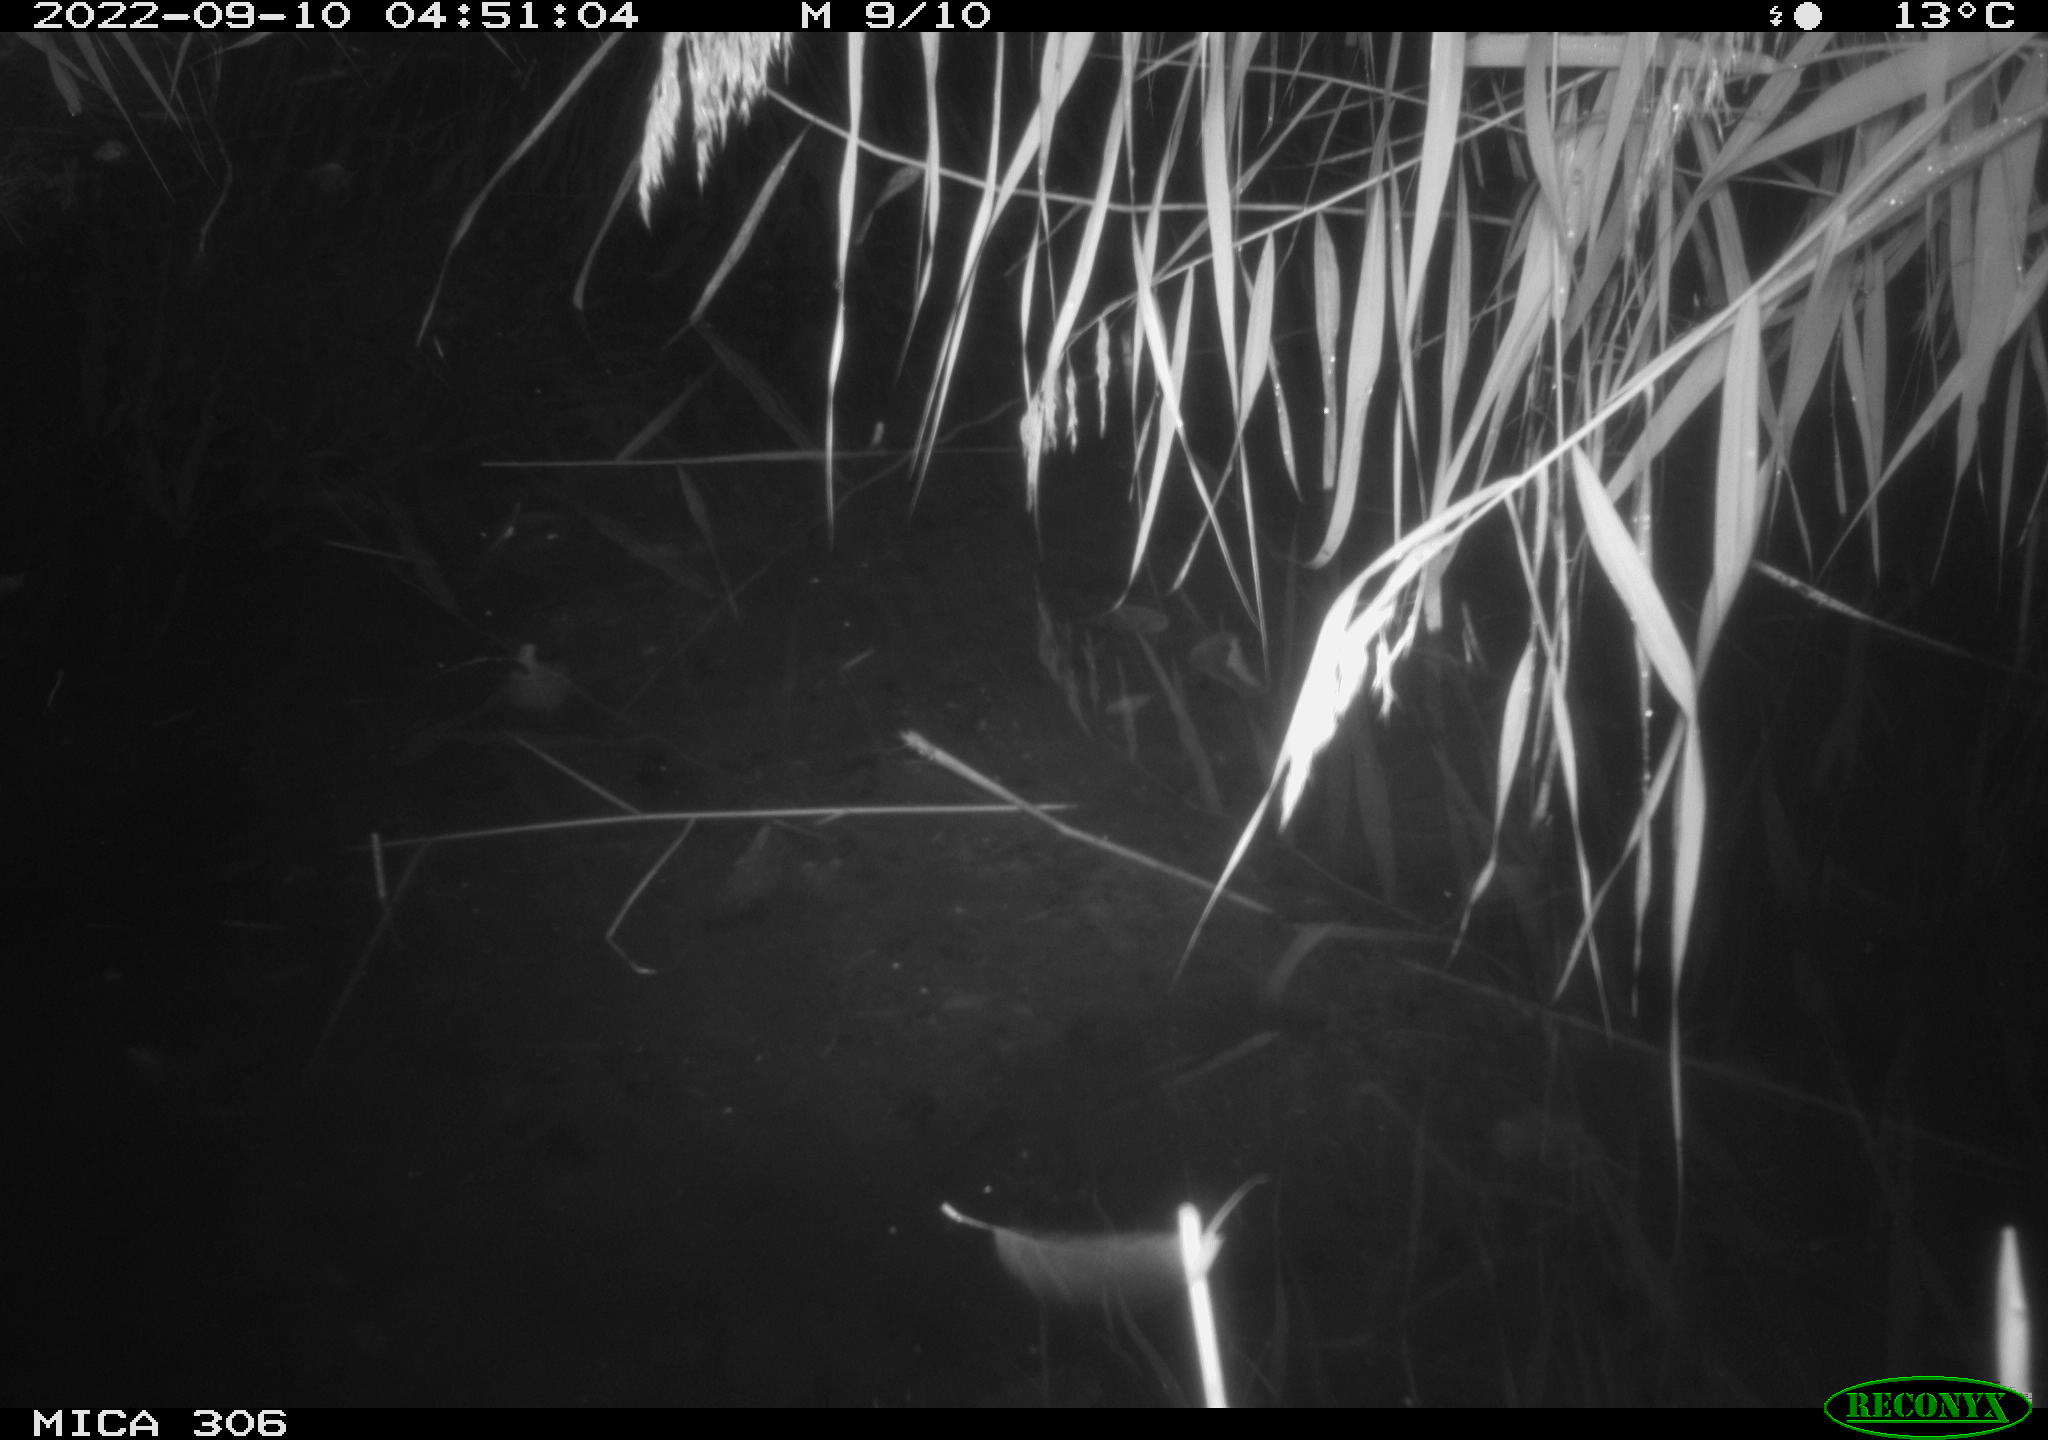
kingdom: Animalia
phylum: Chordata
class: Mammalia
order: Rodentia
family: Muridae
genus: Rattus
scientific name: Rattus norvegicus
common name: Brown rat
